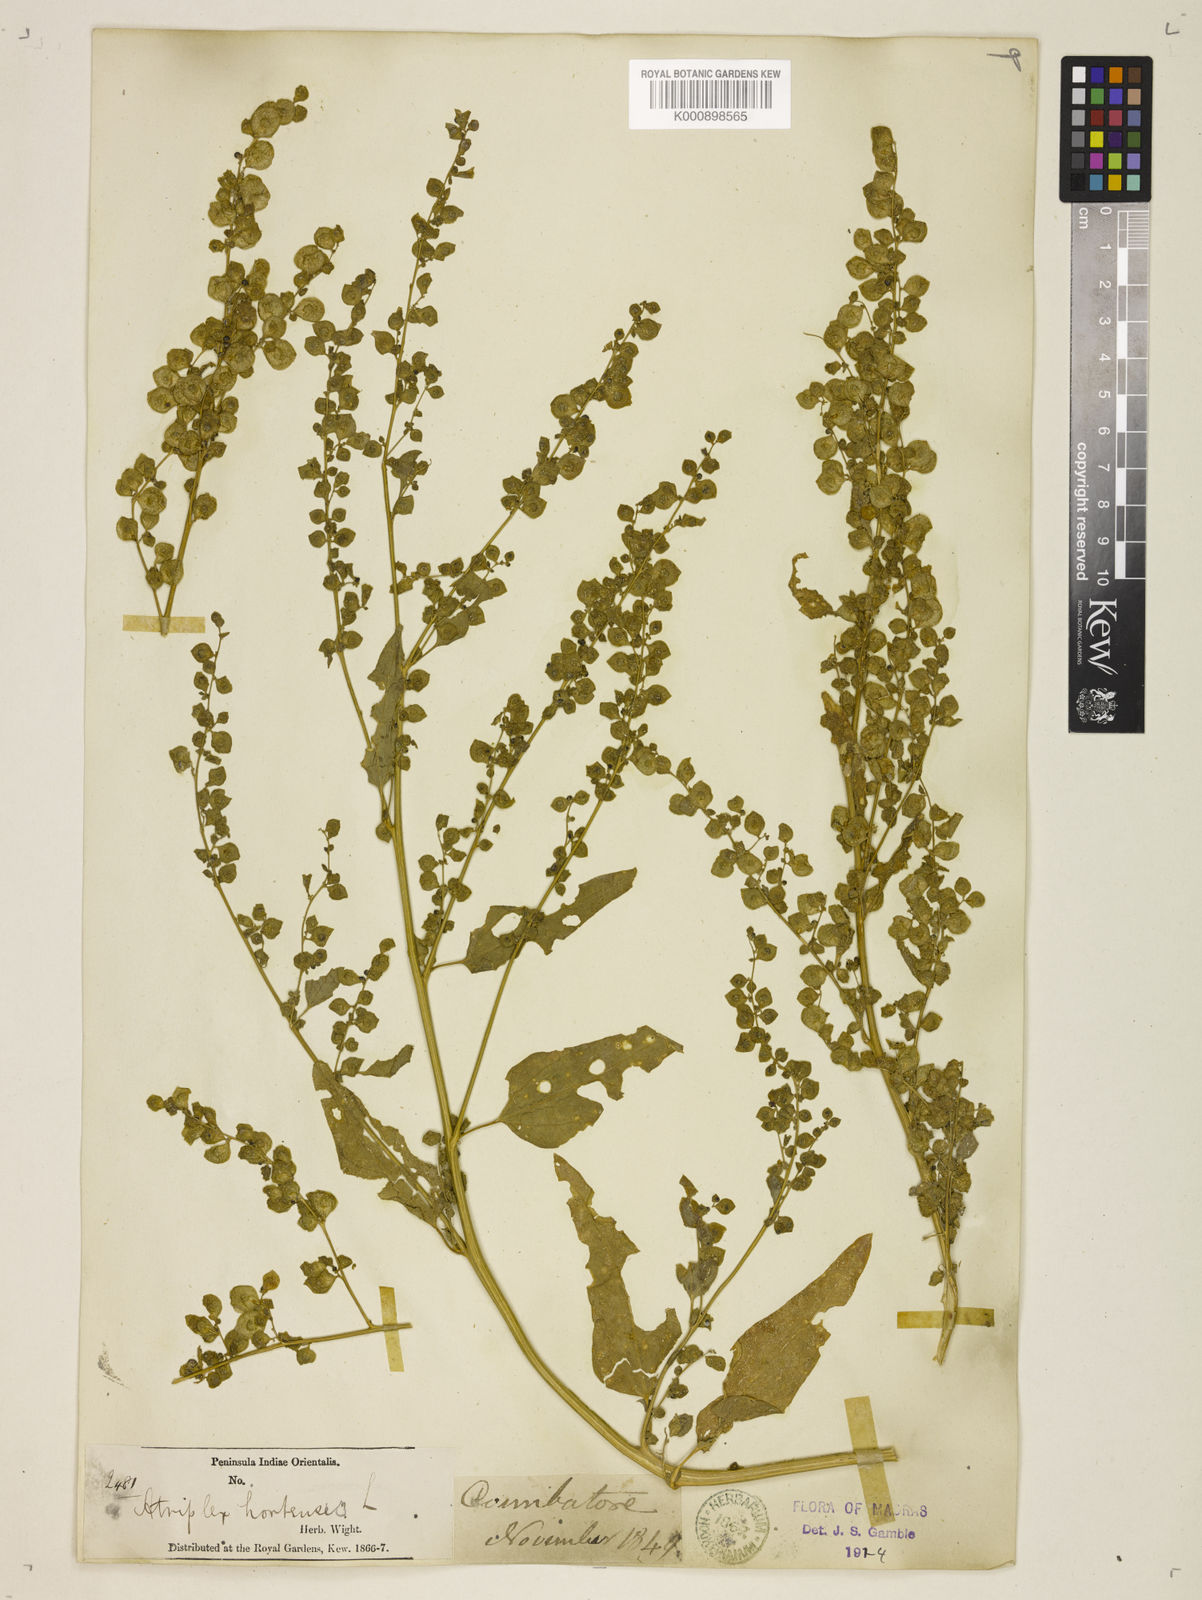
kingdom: Plantae
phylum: Tracheophyta
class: Magnoliopsida
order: Caryophyllales
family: Amaranthaceae
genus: Atriplex
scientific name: Atriplex hortensis
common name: Garden orache
